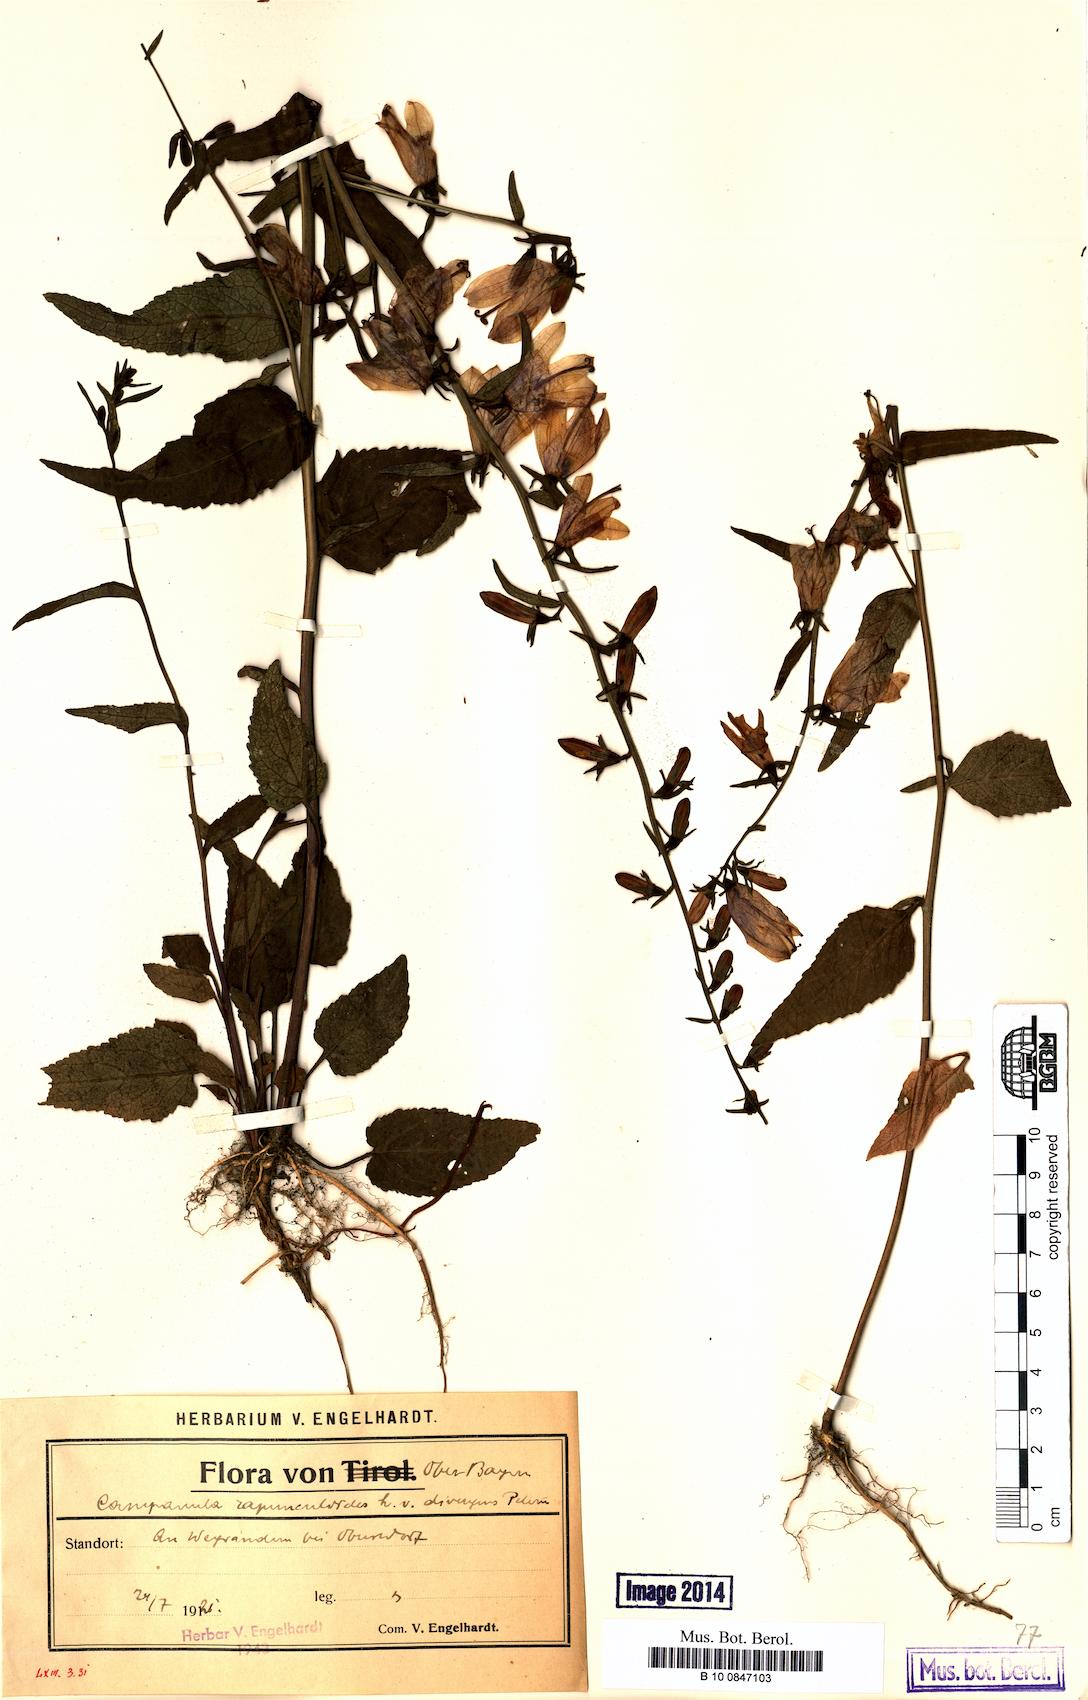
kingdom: Plantae
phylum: Tracheophyta
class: Magnoliopsida
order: Asterales
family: Campanulaceae
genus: Campanula
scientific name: Campanula rapunculoides
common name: Creeping bellflower
